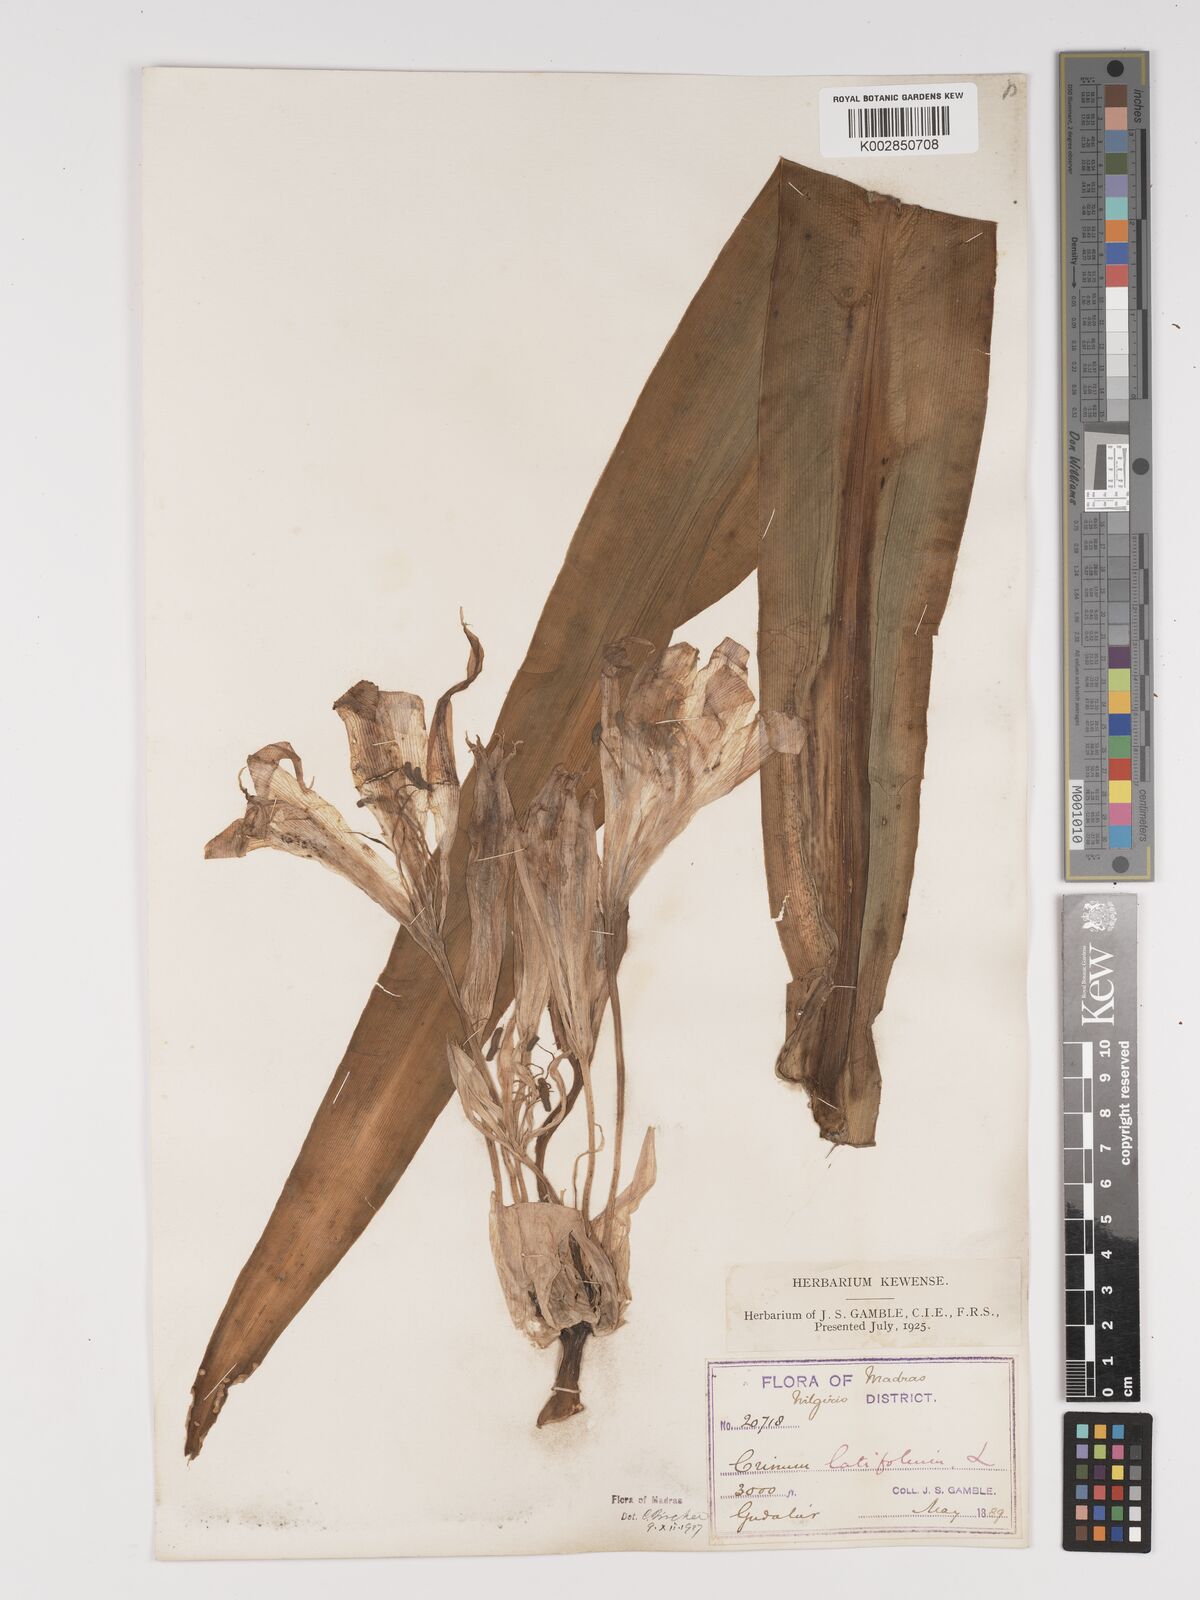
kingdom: Plantae
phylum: Tracheophyta
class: Liliopsida
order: Asparagales
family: Amaryllidaceae
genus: Crinum
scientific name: Crinum latifolium
